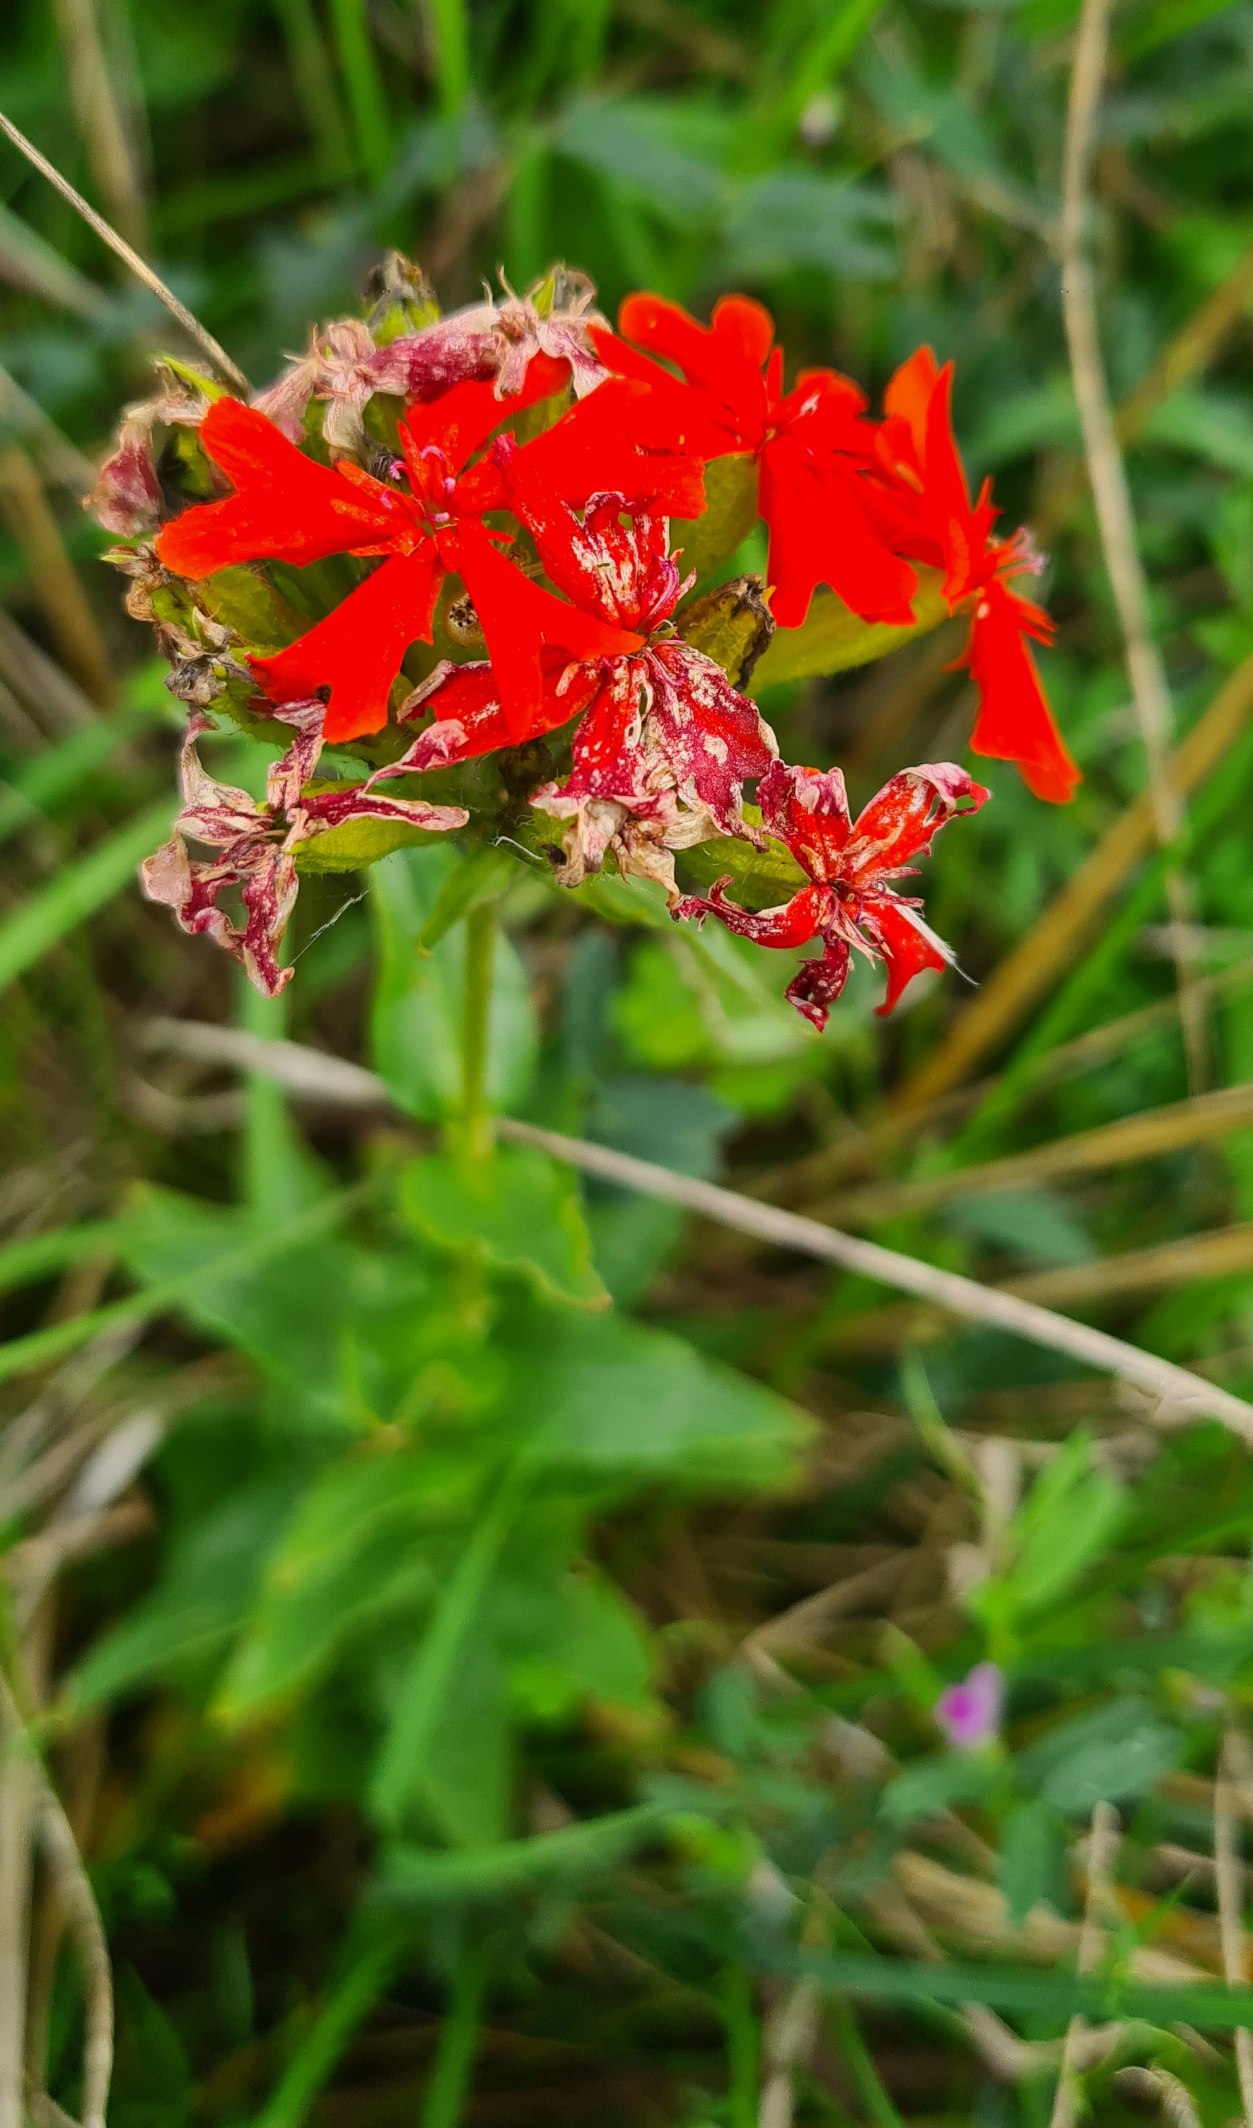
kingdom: Plantae
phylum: Tracheophyta
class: Magnoliopsida
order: Caryophyllales
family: Caryophyllaceae
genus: Silene
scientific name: Silene chalcedonica
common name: Brændende kærlighed
